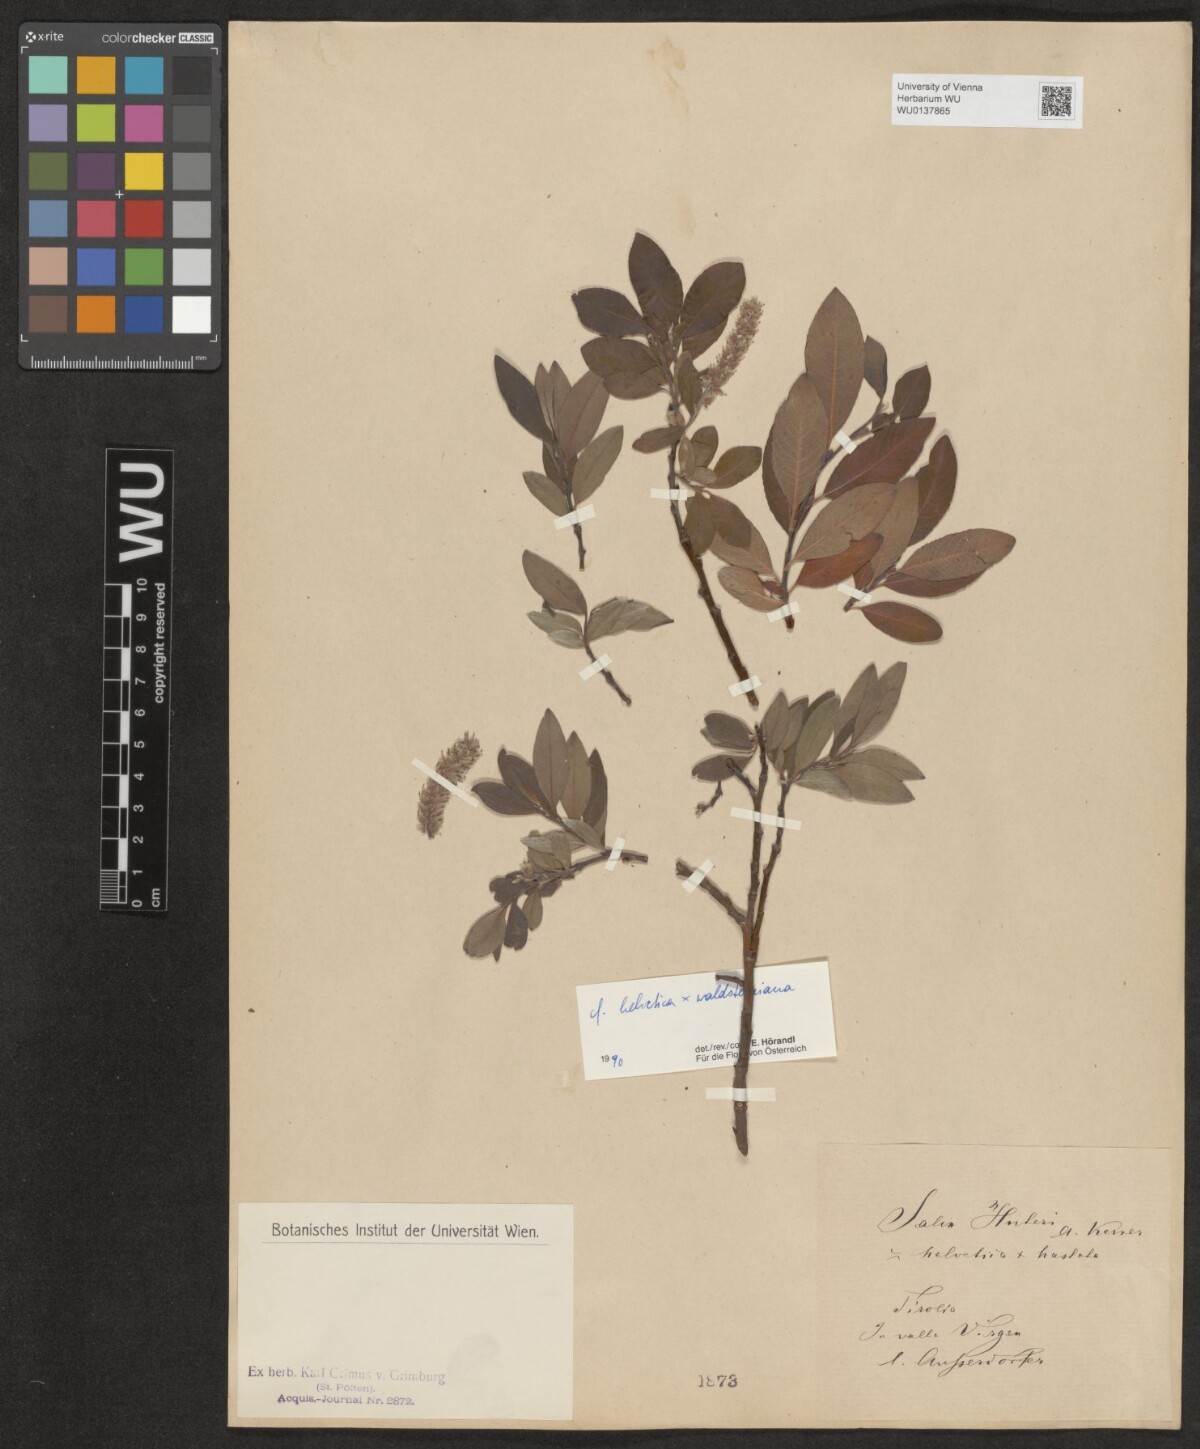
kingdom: Plantae
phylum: Tracheophyta
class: Magnoliopsida
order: Malpighiales
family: Salicaceae
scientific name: Salicaceae
